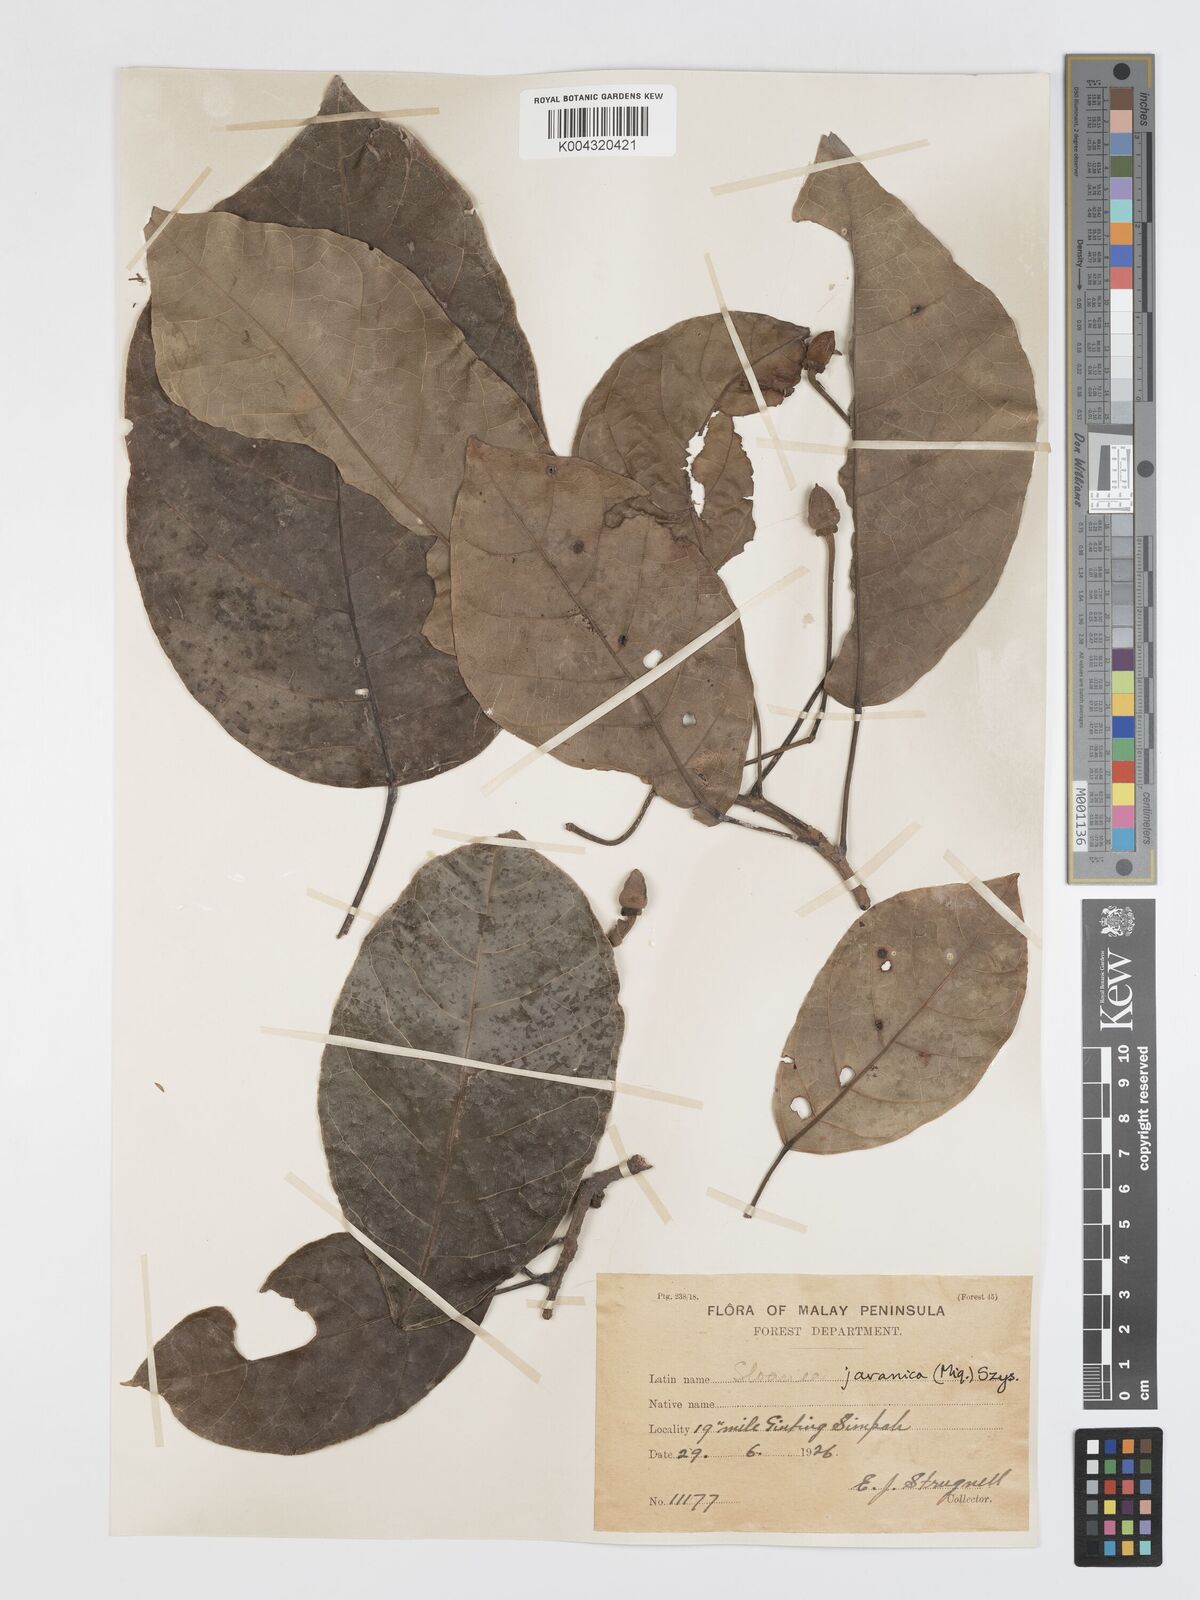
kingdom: Plantae
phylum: Tracheophyta
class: Magnoliopsida
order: Oxalidales
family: Elaeocarpaceae
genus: Sloanea
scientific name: Sloanea javanica
